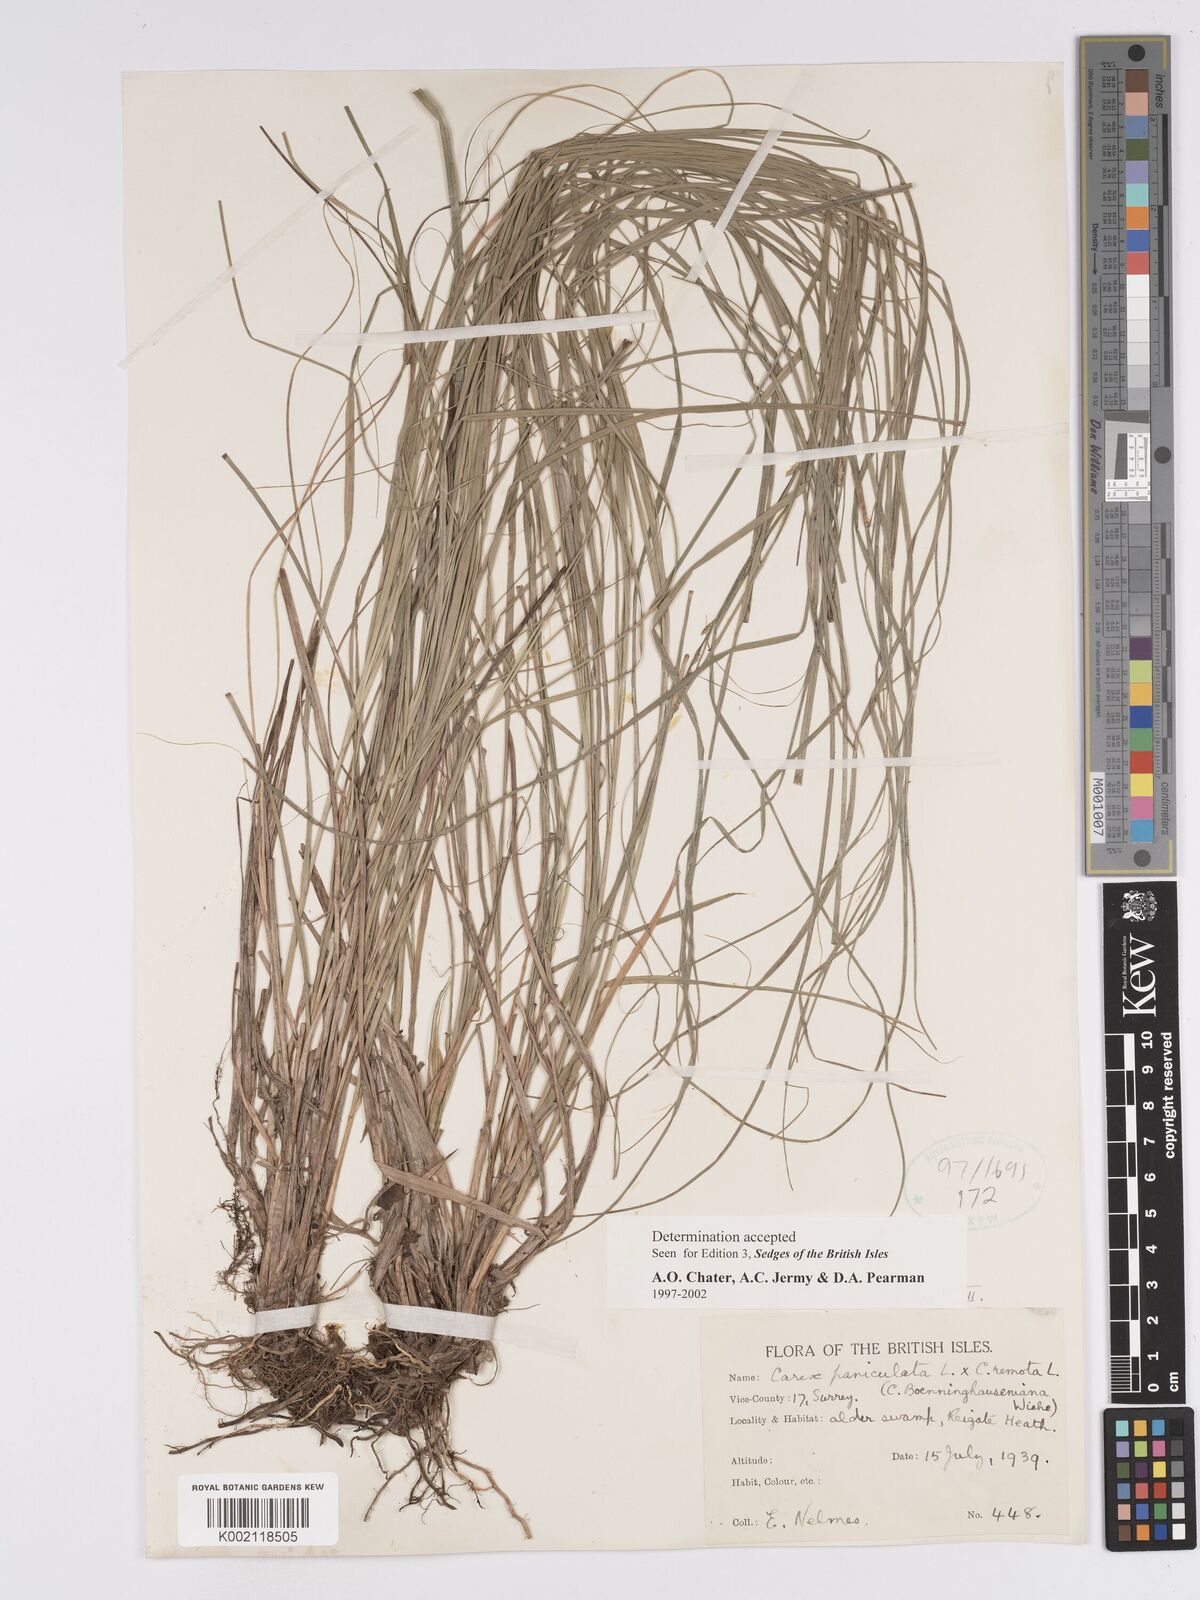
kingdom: Plantae
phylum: Tracheophyta
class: Liliopsida
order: Poales
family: Cyperaceae
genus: Carex
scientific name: Carex boenninghausiana
